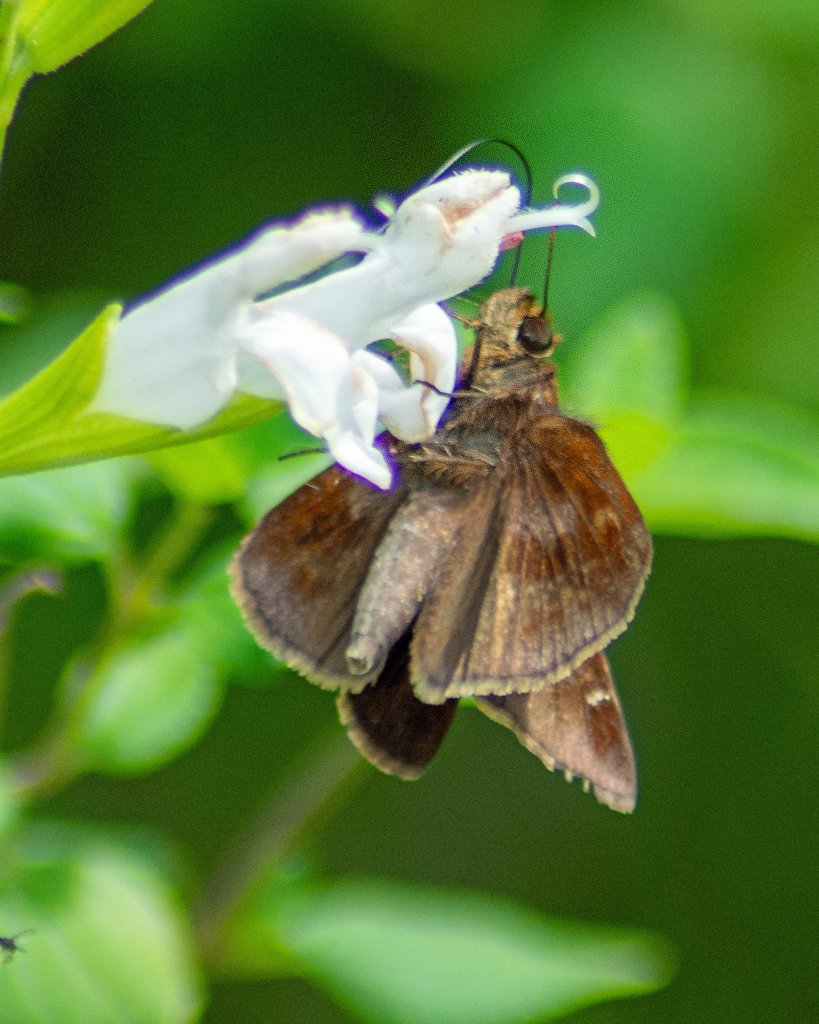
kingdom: Animalia
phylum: Arthropoda
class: Insecta
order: Lepidoptera
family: Hesperiidae
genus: Lerema
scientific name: Lerema accius
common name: Clouded Skipper
